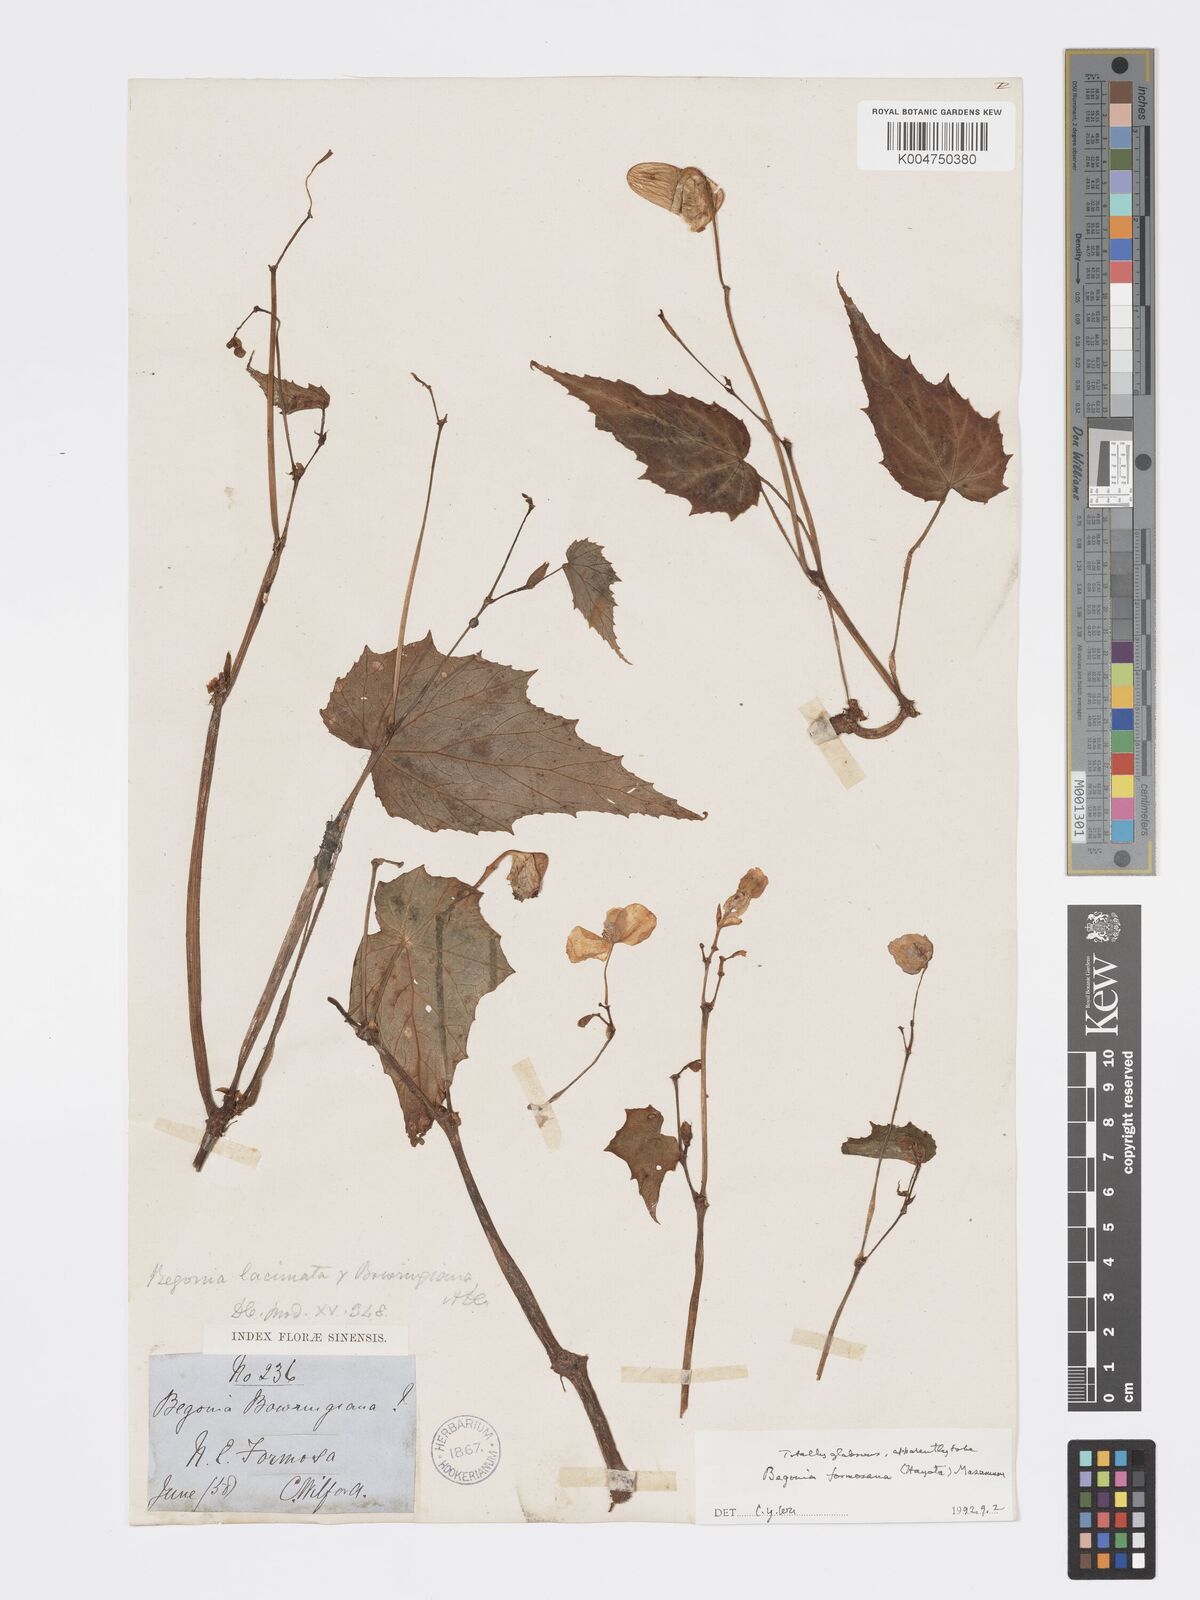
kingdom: Plantae
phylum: Tracheophyta
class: Magnoliopsida
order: Cucurbitales
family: Begoniaceae
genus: Begonia
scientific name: Begonia palmata
